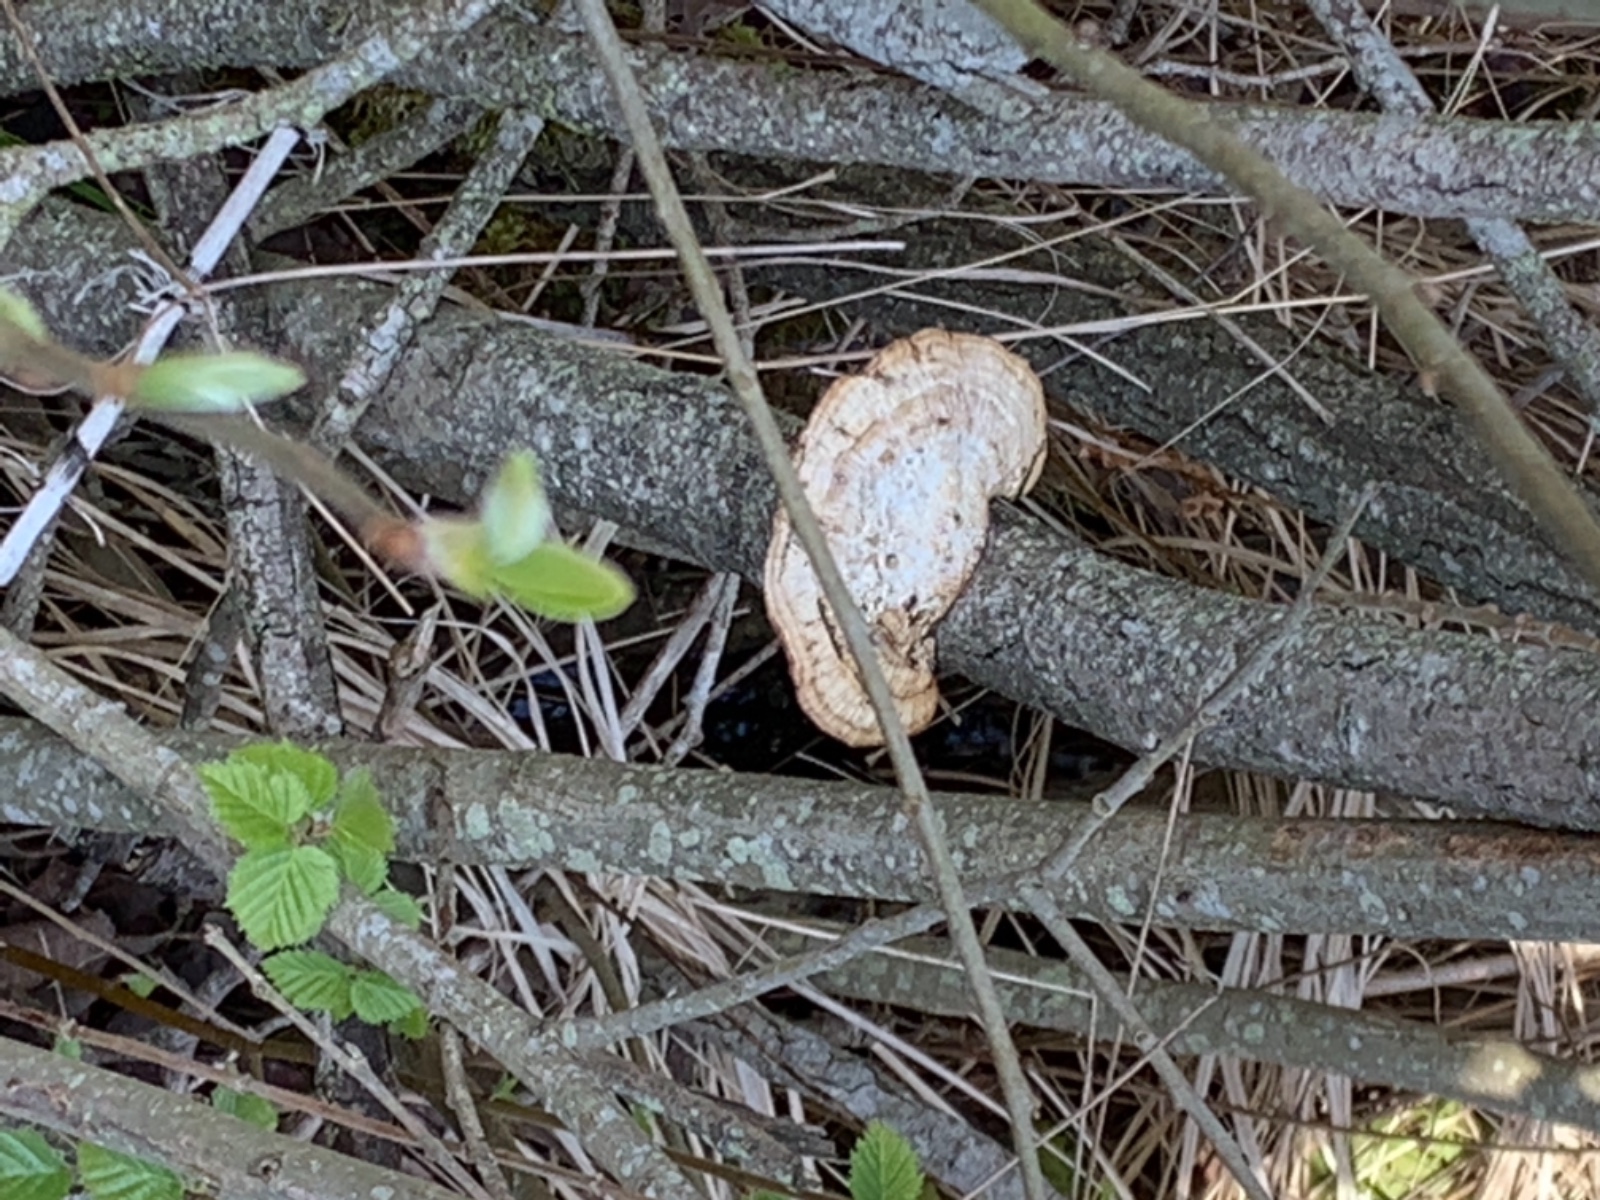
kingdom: Fungi
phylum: Basidiomycota
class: Agaricomycetes
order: Polyporales
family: Polyporaceae
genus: Daedaleopsis
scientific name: Daedaleopsis confragosa
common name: rødmende læderporesvamp
